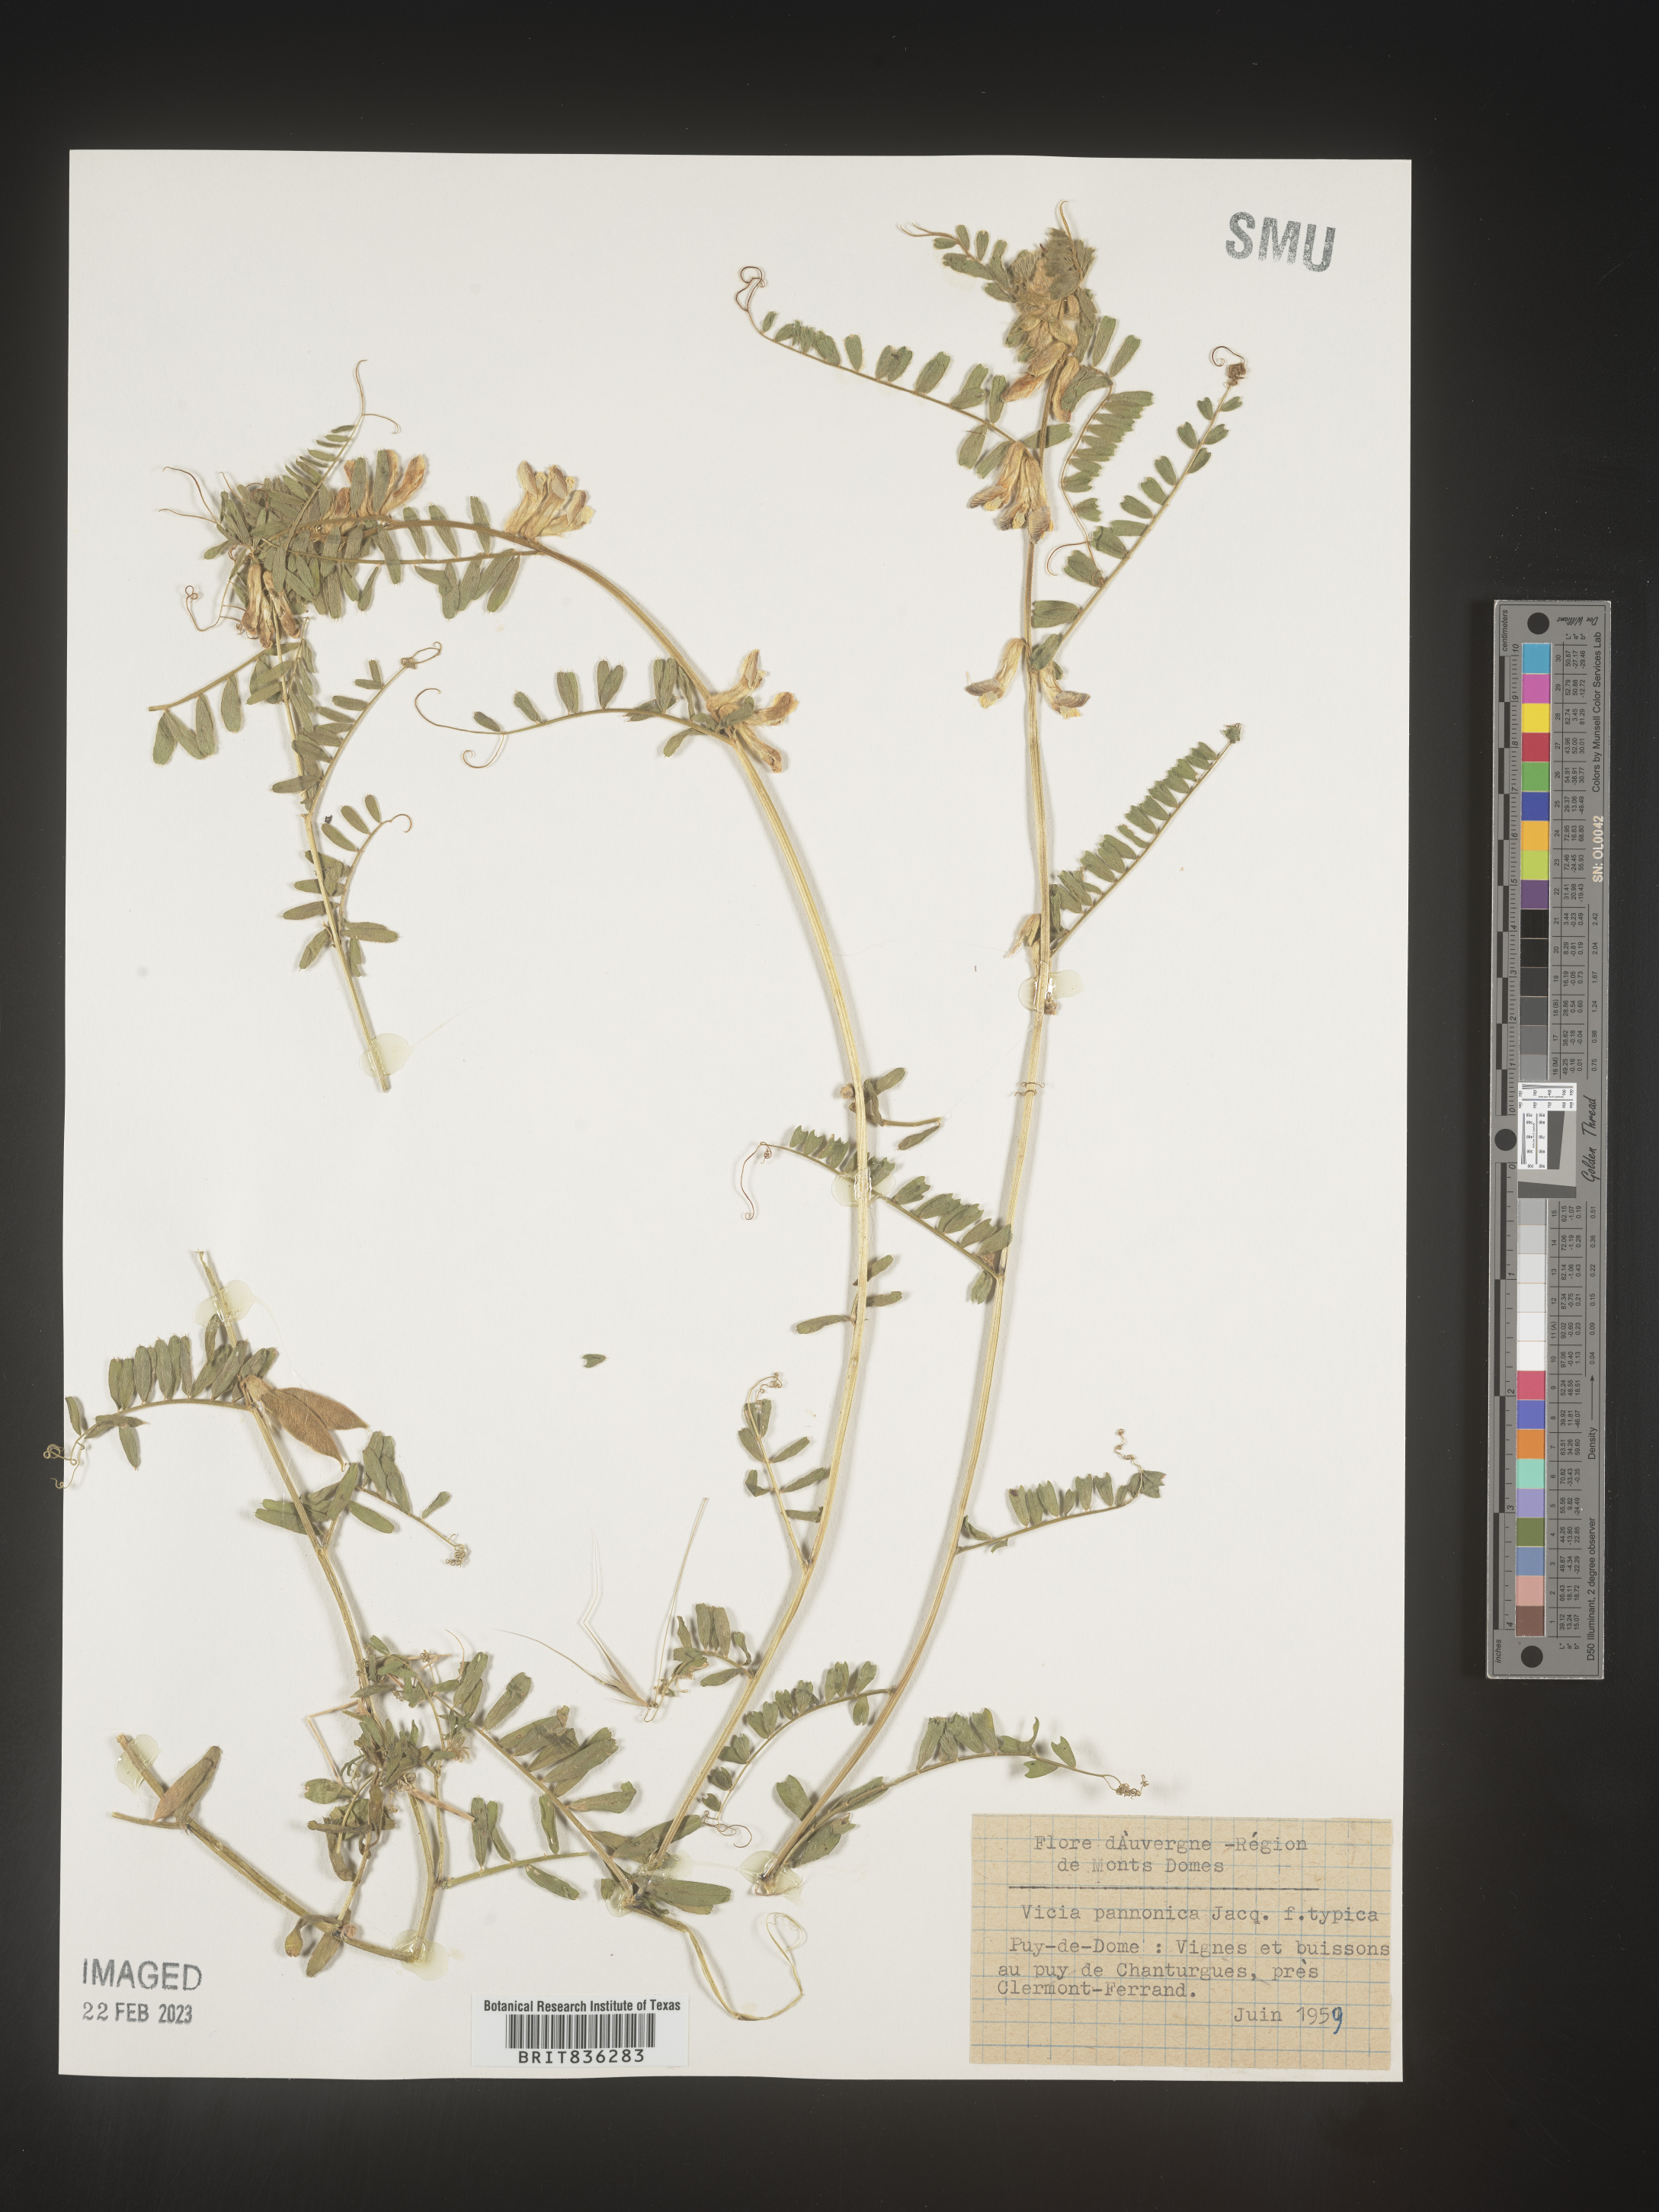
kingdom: Plantae
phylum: Tracheophyta
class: Magnoliopsida
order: Fabales
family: Fabaceae
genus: Vicia
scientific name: Vicia
